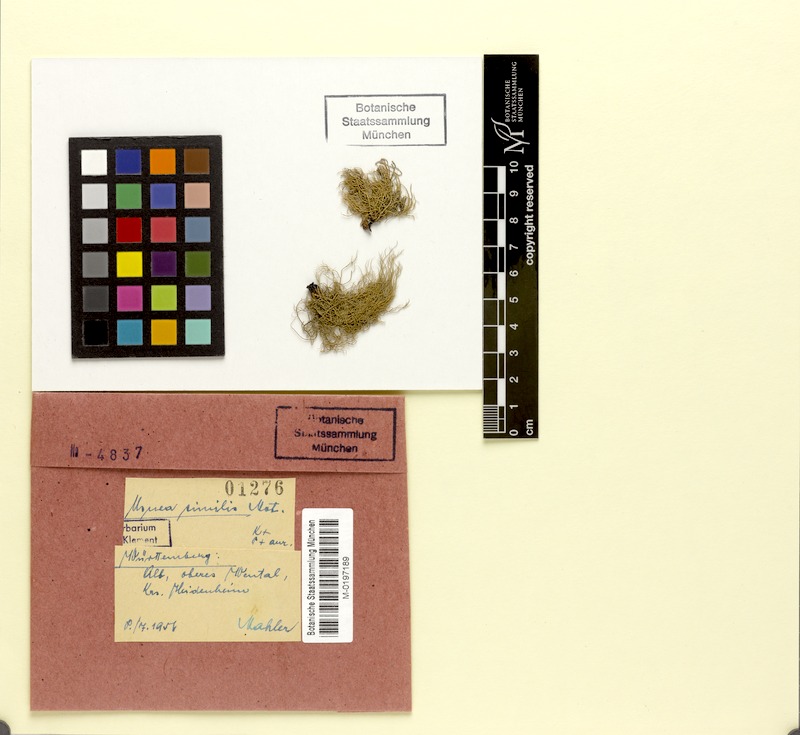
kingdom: Fungi
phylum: Ascomycota
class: Lecanoromycetes
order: Lecanorales
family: Parmeliaceae
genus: Usnea
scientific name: Usnea subfloridana
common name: Boreal beard lichen
